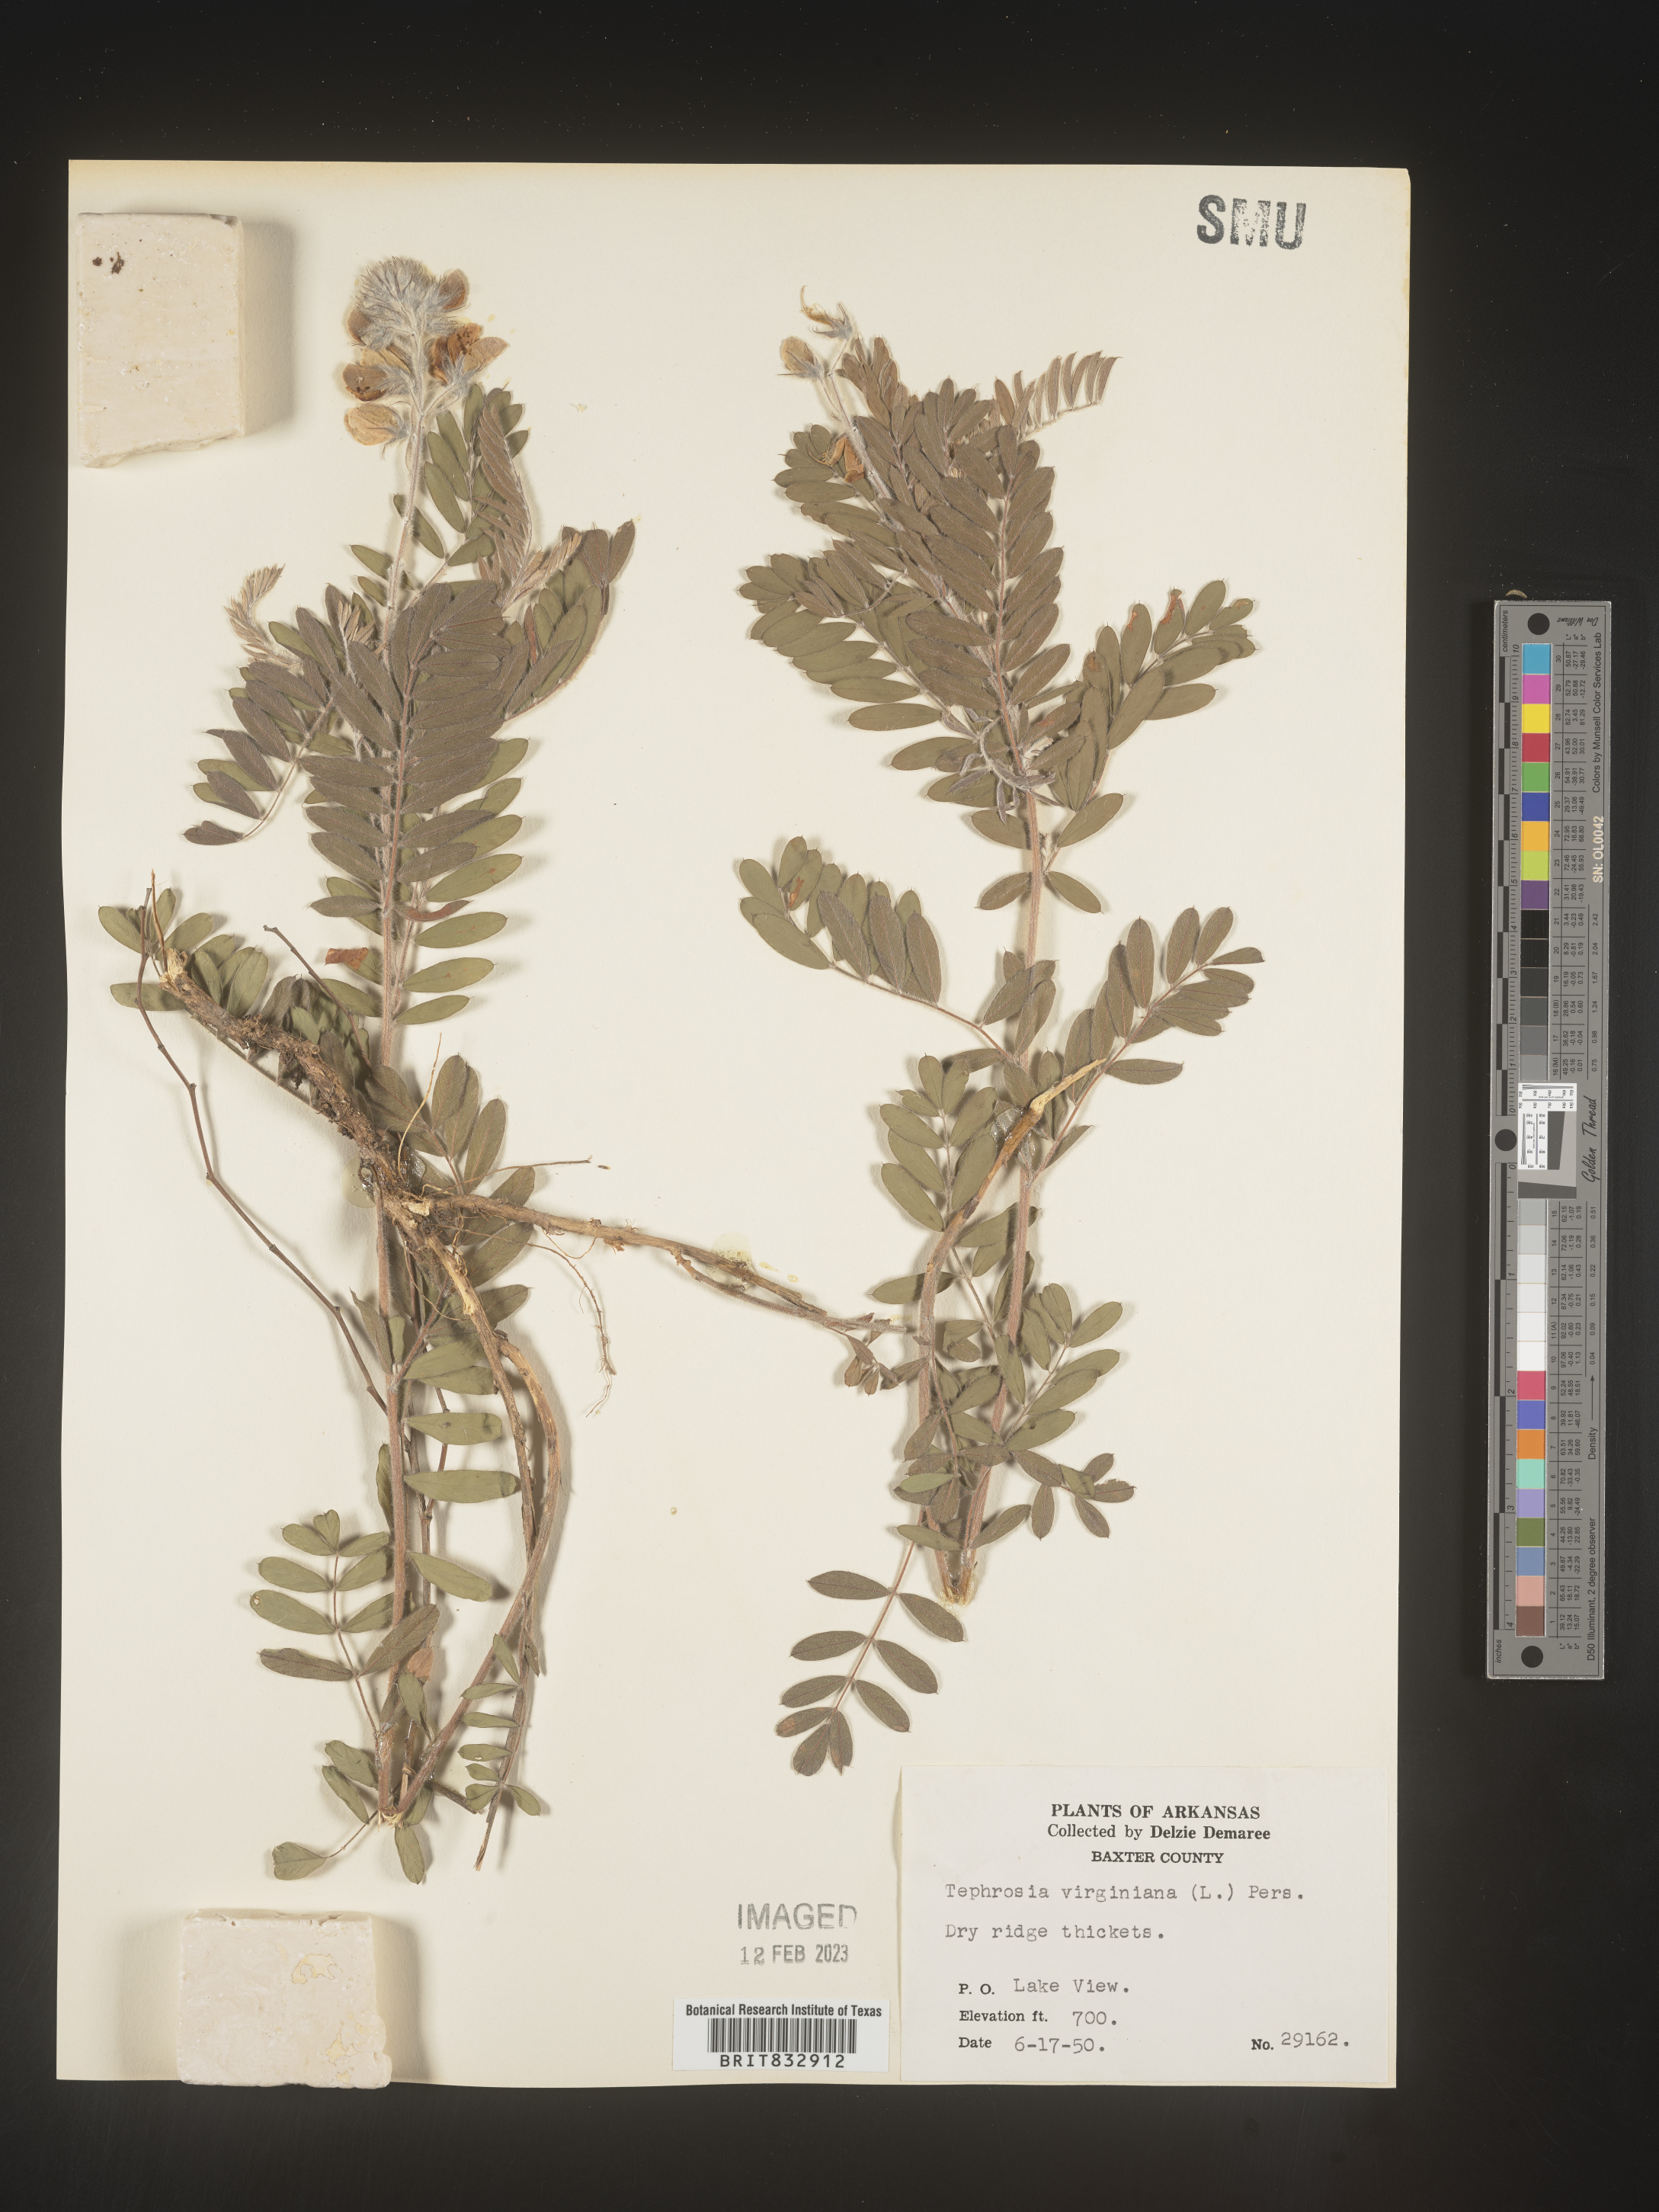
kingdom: Plantae
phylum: Tracheophyta
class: Magnoliopsida
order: Fabales
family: Fabaceae
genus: Tephrosia
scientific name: Tephrosia virginiana
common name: Rabbit-pea
